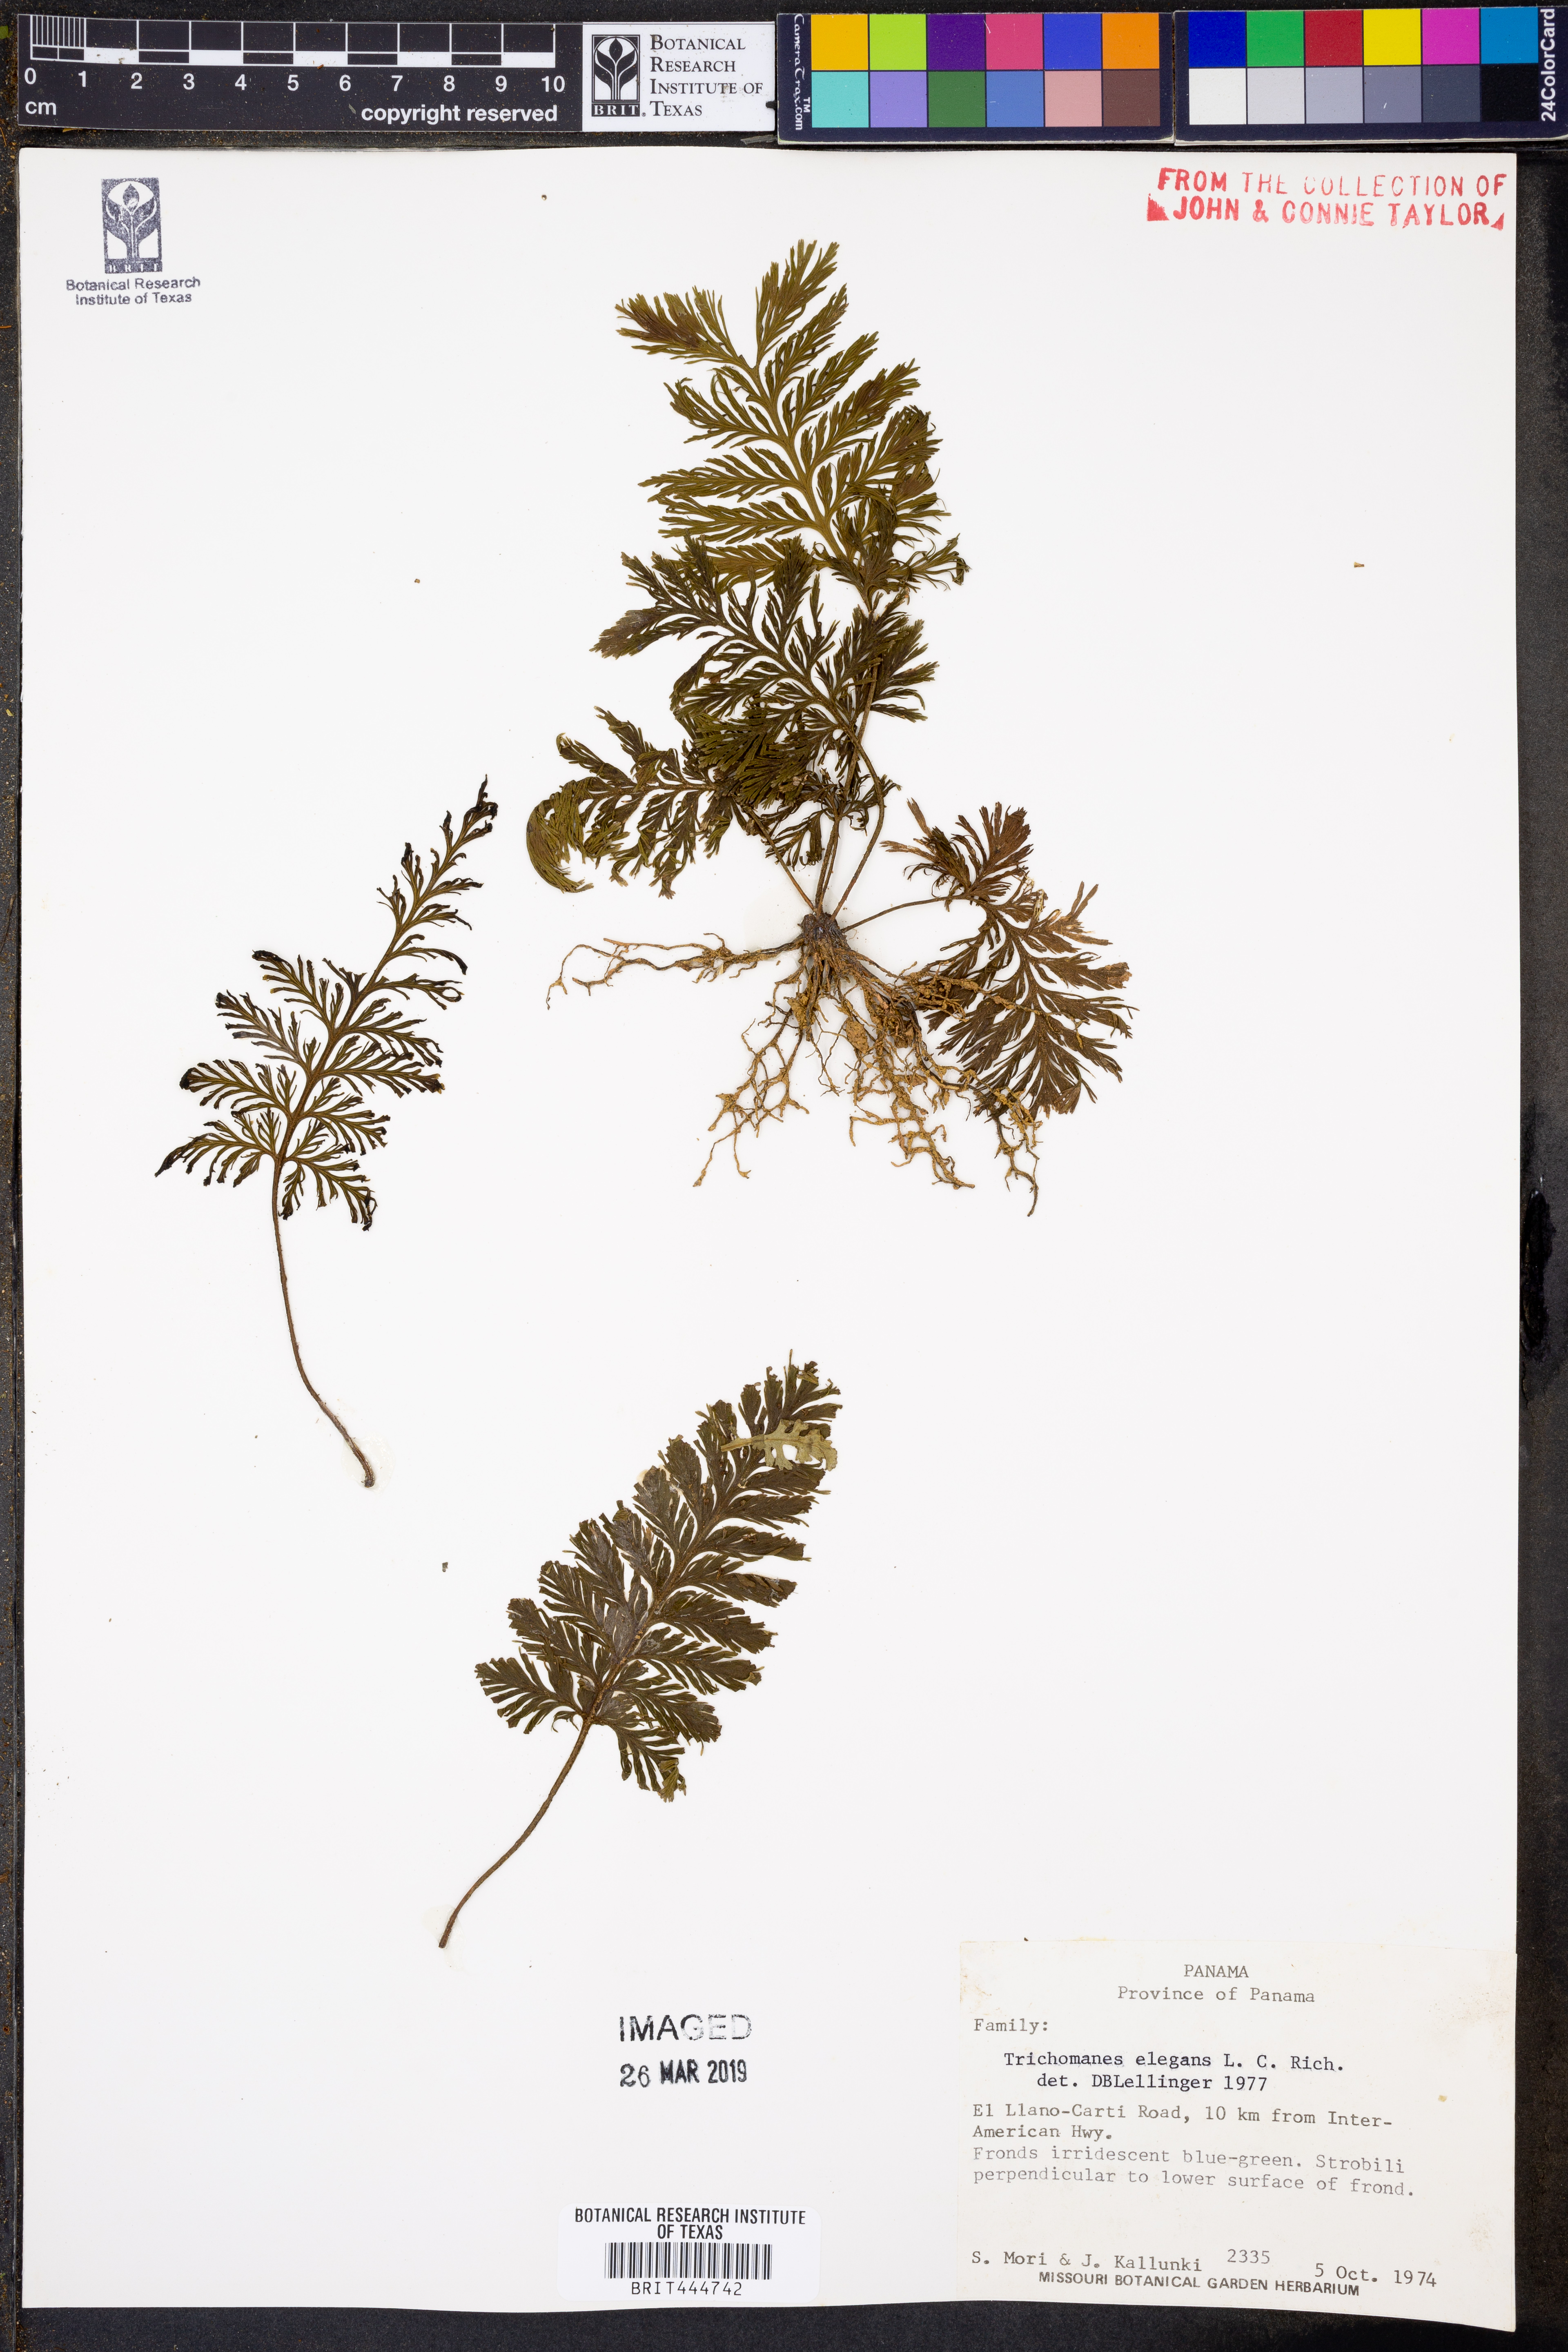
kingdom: Plantae
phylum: Tracheophyta
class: Polypodiopsida
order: Hymenophyllales
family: Hymenophyllaceae
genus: Trichomanes
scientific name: Trichomanes elegans
